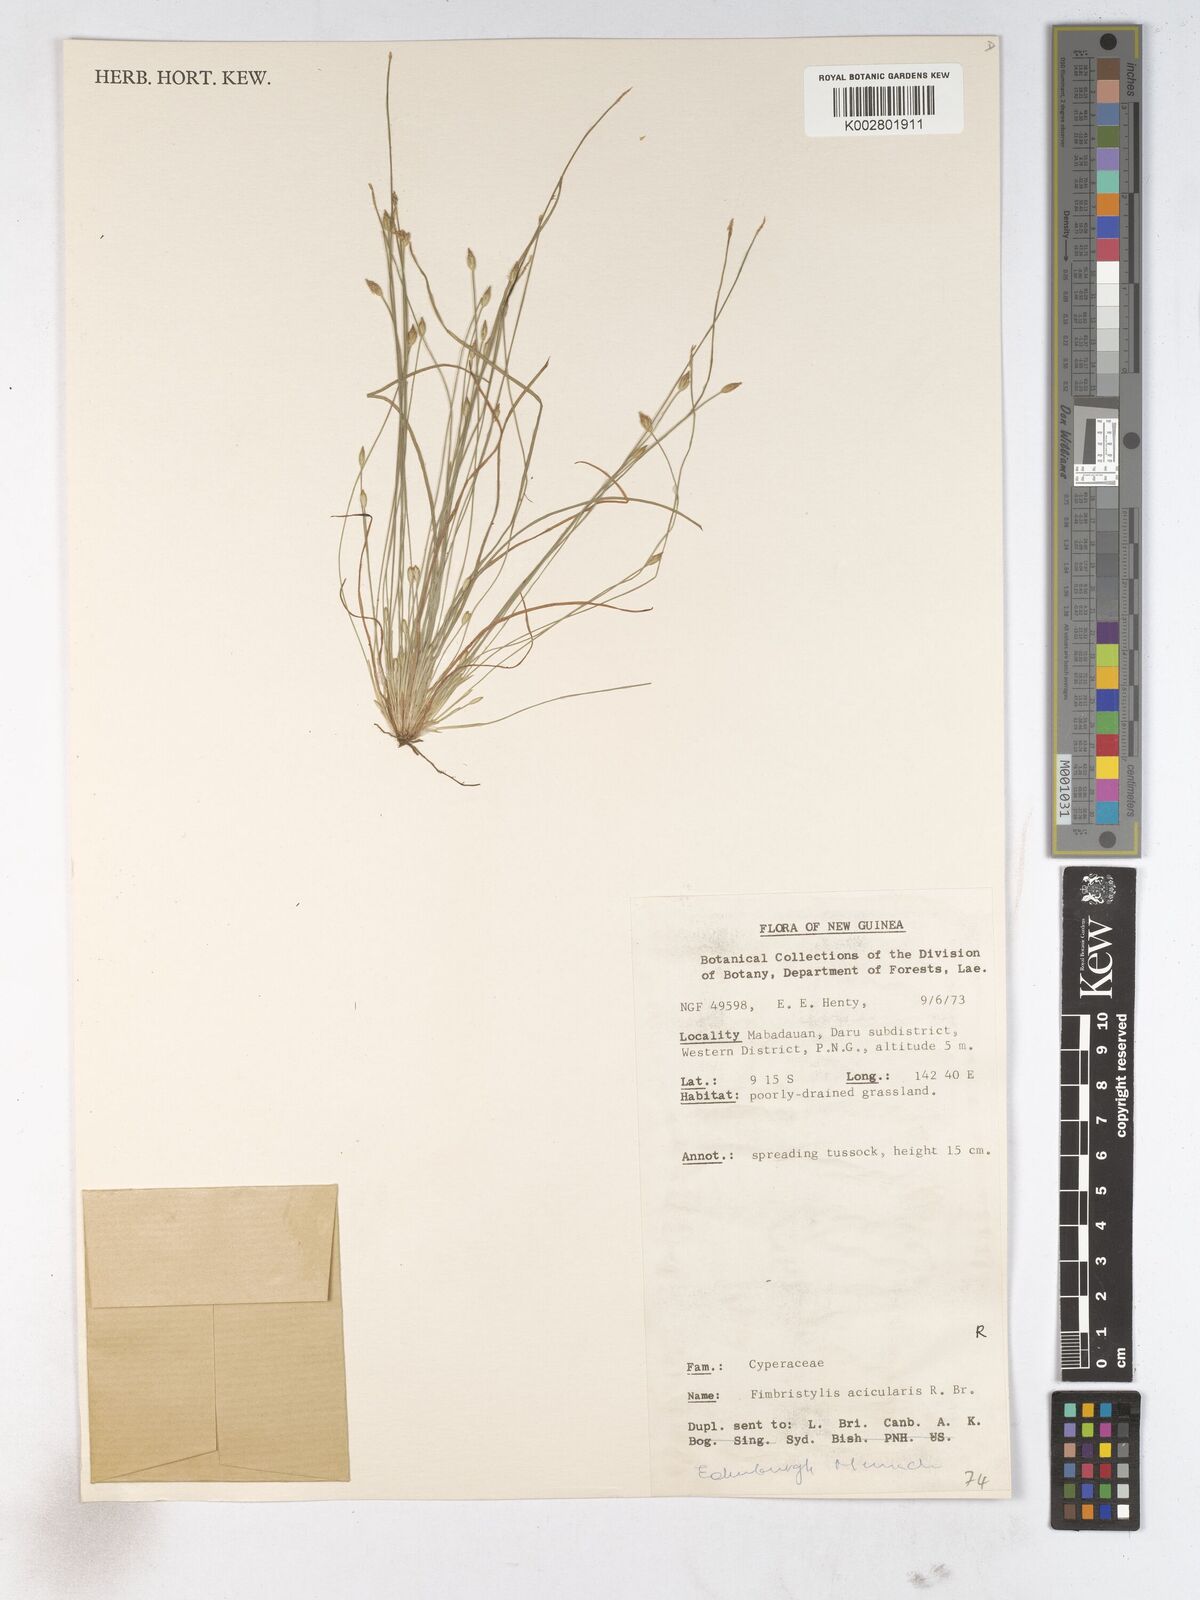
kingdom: Plantae
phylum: Tracheophyta
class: Liliopsida
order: Poales
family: Cyperaceae
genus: Fimbristylis
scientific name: Fimbristylis acicularis
